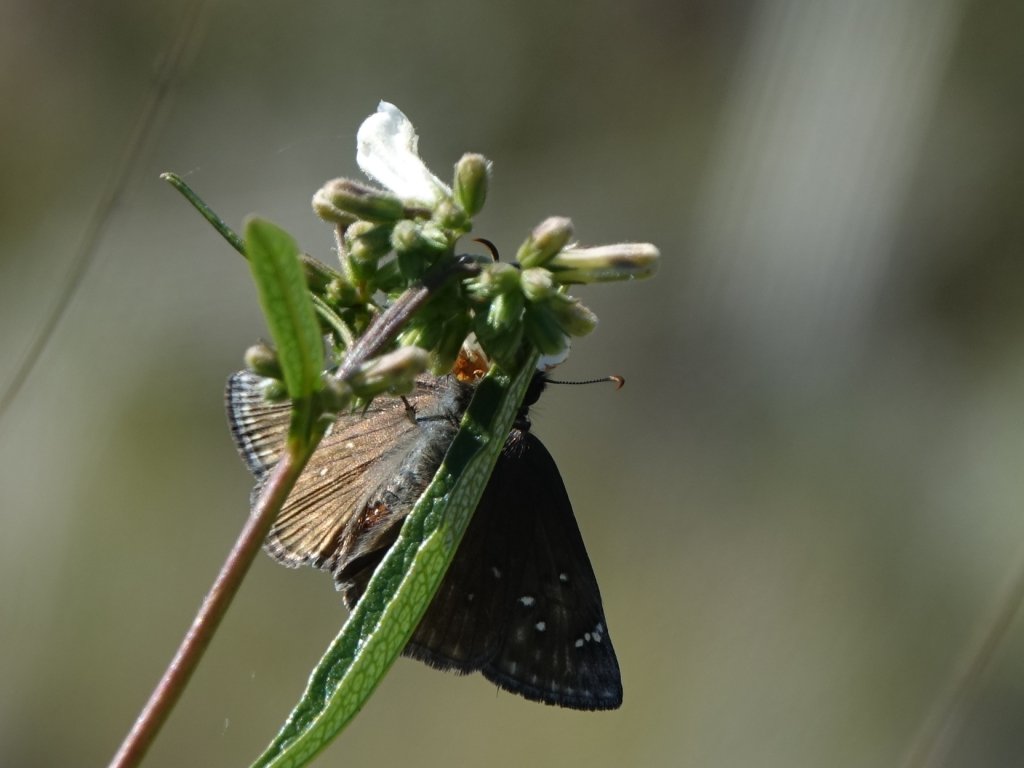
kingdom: Animalia
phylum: Arthropoda
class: Insecta
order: Lepidoptera
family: Hesperiidae
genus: Erynnis
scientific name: Erynnis propertius
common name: Propertius Duskywing
